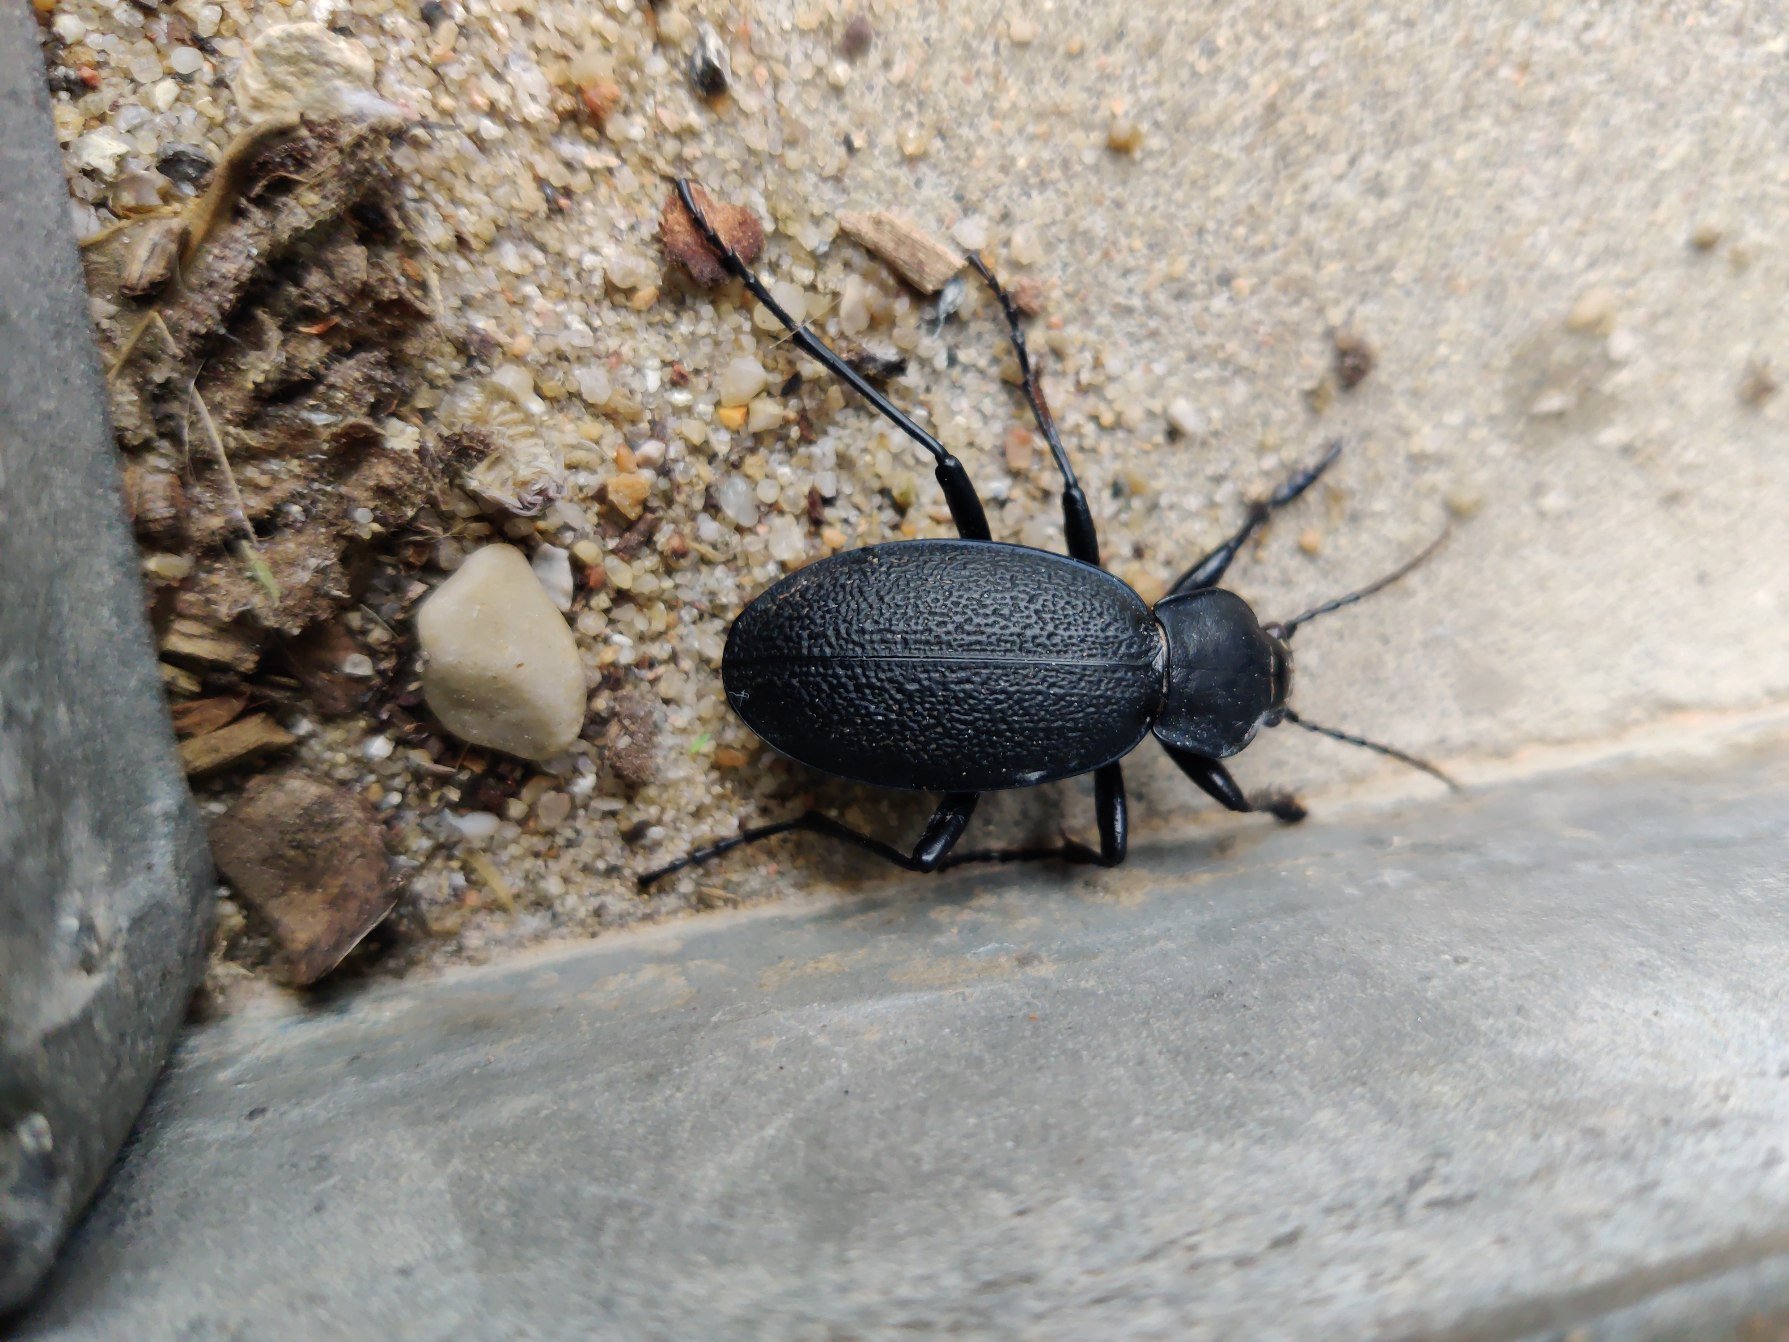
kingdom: Animalia
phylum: Arthropoda
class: Insecta
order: Coleoptera
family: Carabidae
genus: Carabus
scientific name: Carabus coriaceus
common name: Læderløber
